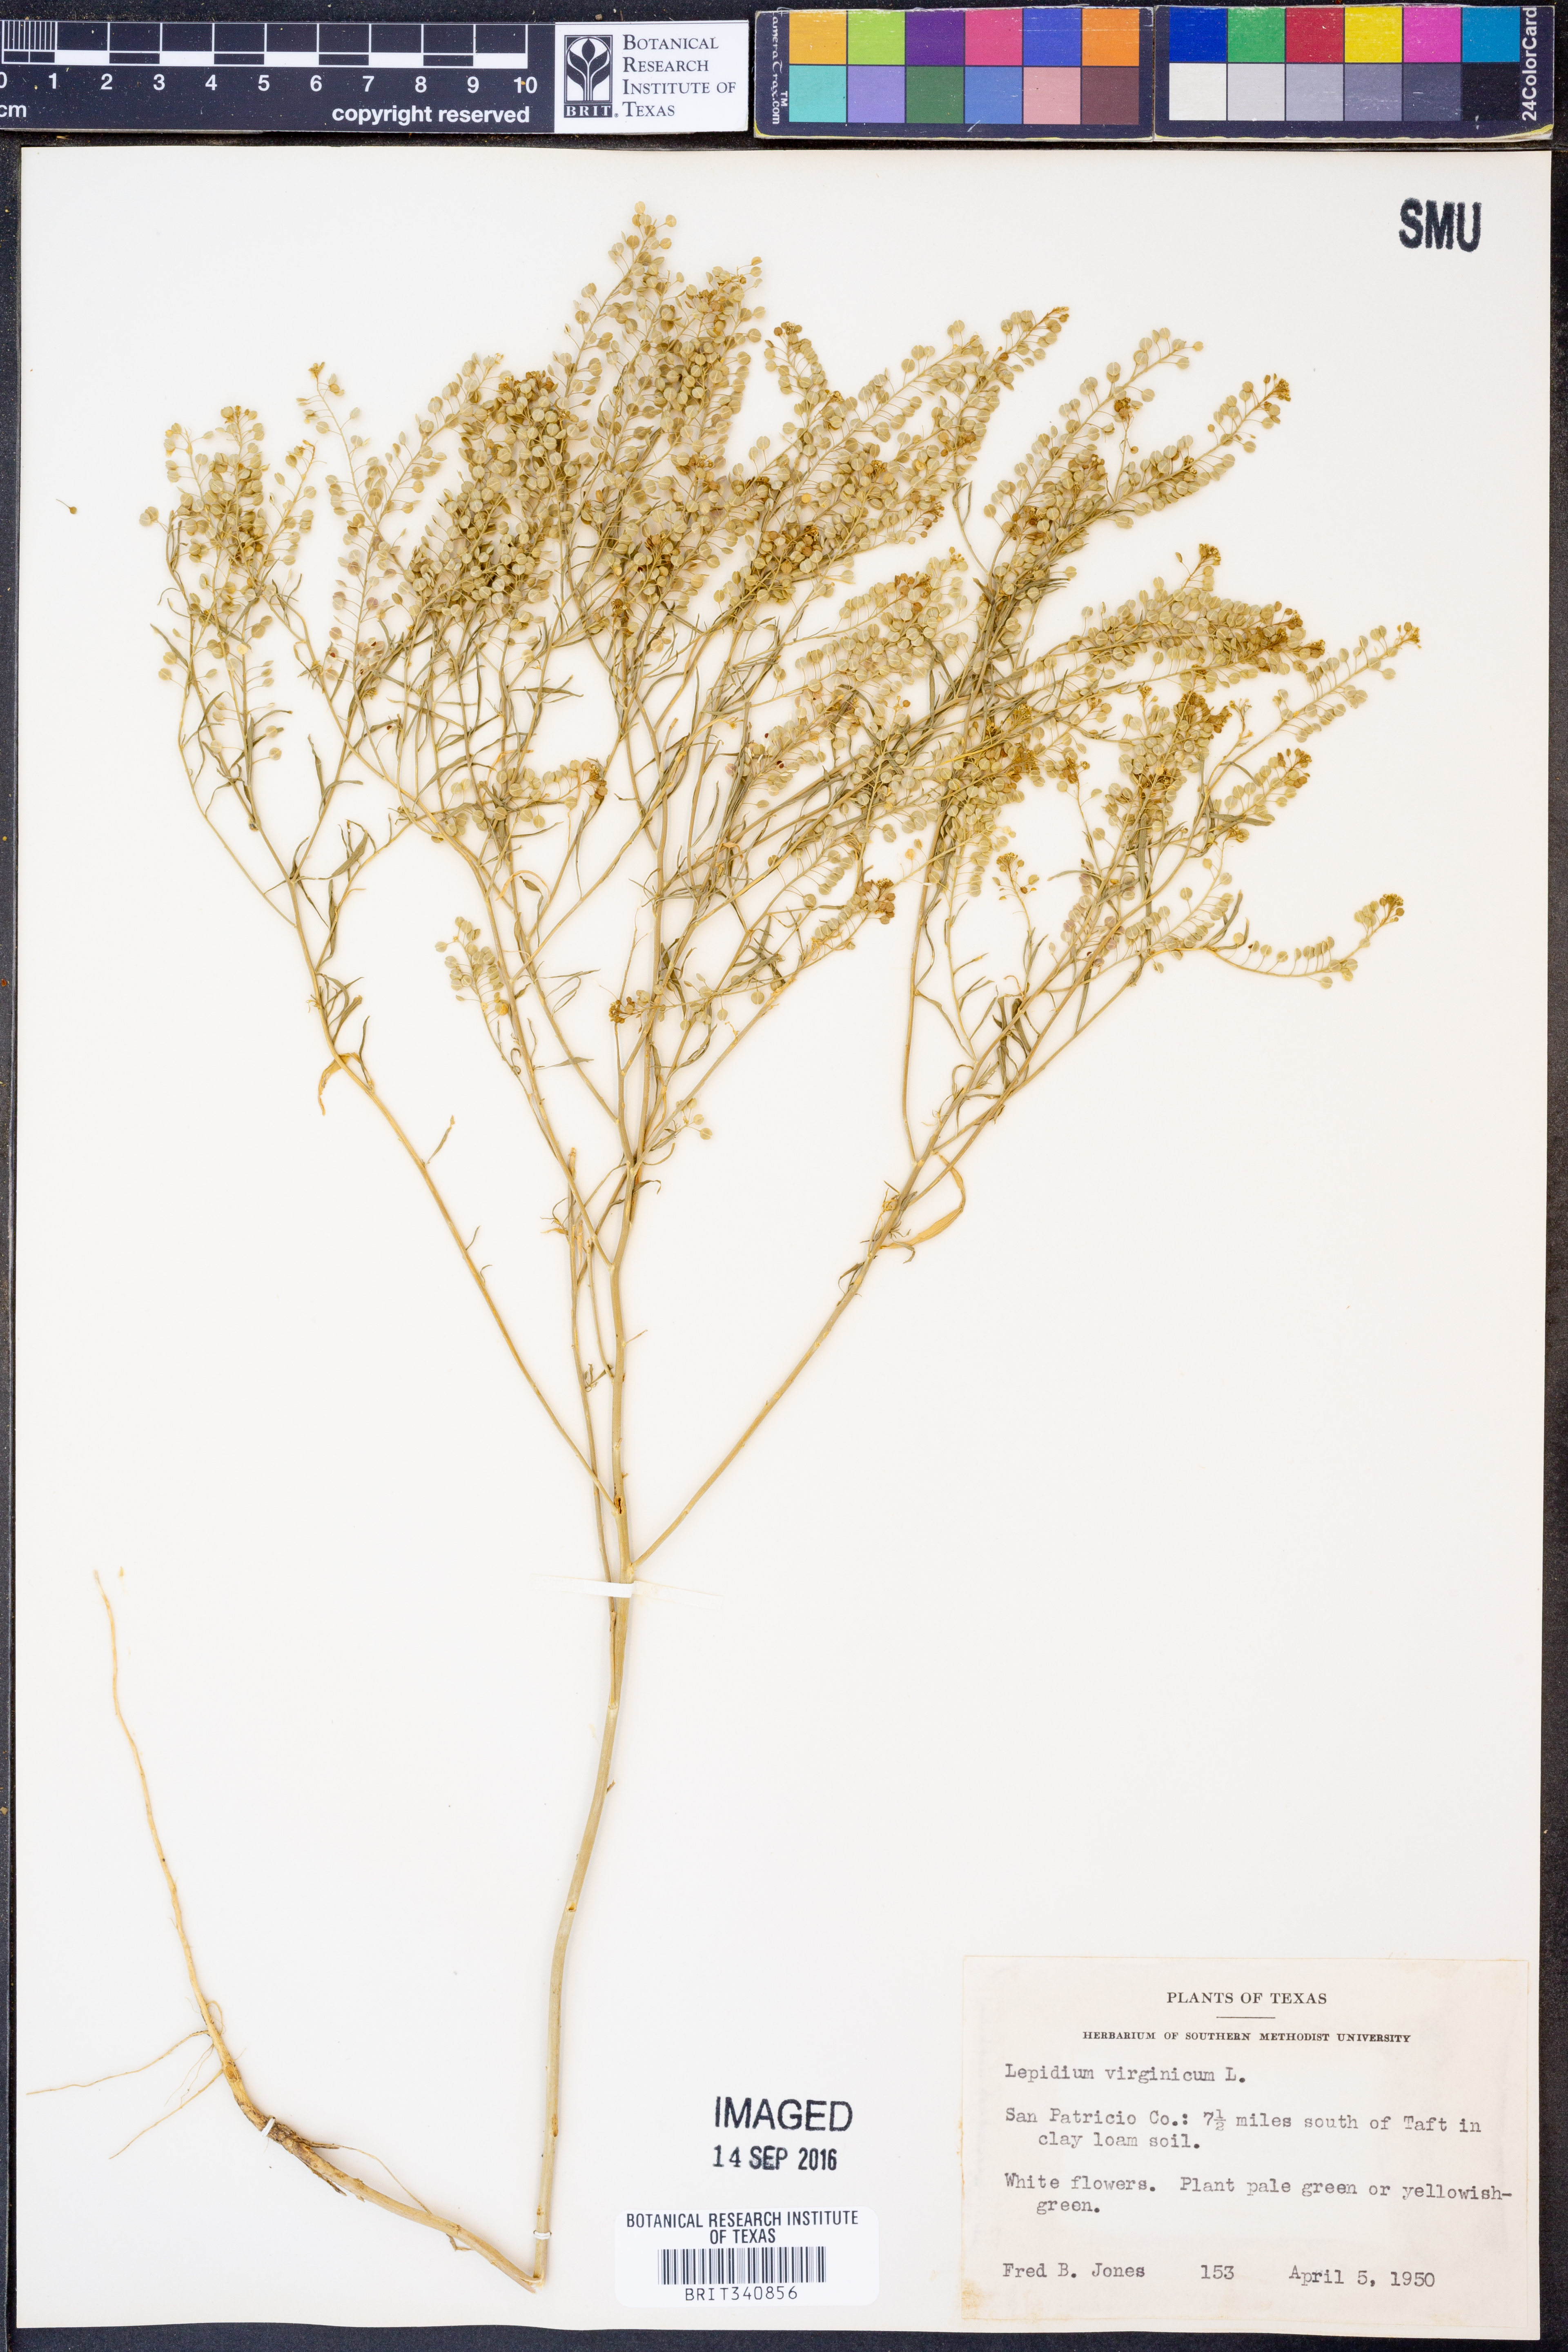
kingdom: Plantae
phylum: Tracheophyta
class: Magnoliopsida
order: Brassicales
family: Brassicaceae
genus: Lepidium
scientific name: Lepidium virginicum
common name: Least pepperwort
